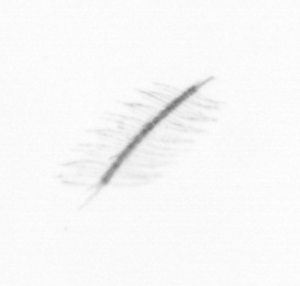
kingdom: Chromista
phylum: Ochrophyta
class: Bacillariophyceae
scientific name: Bacillariophyceae
